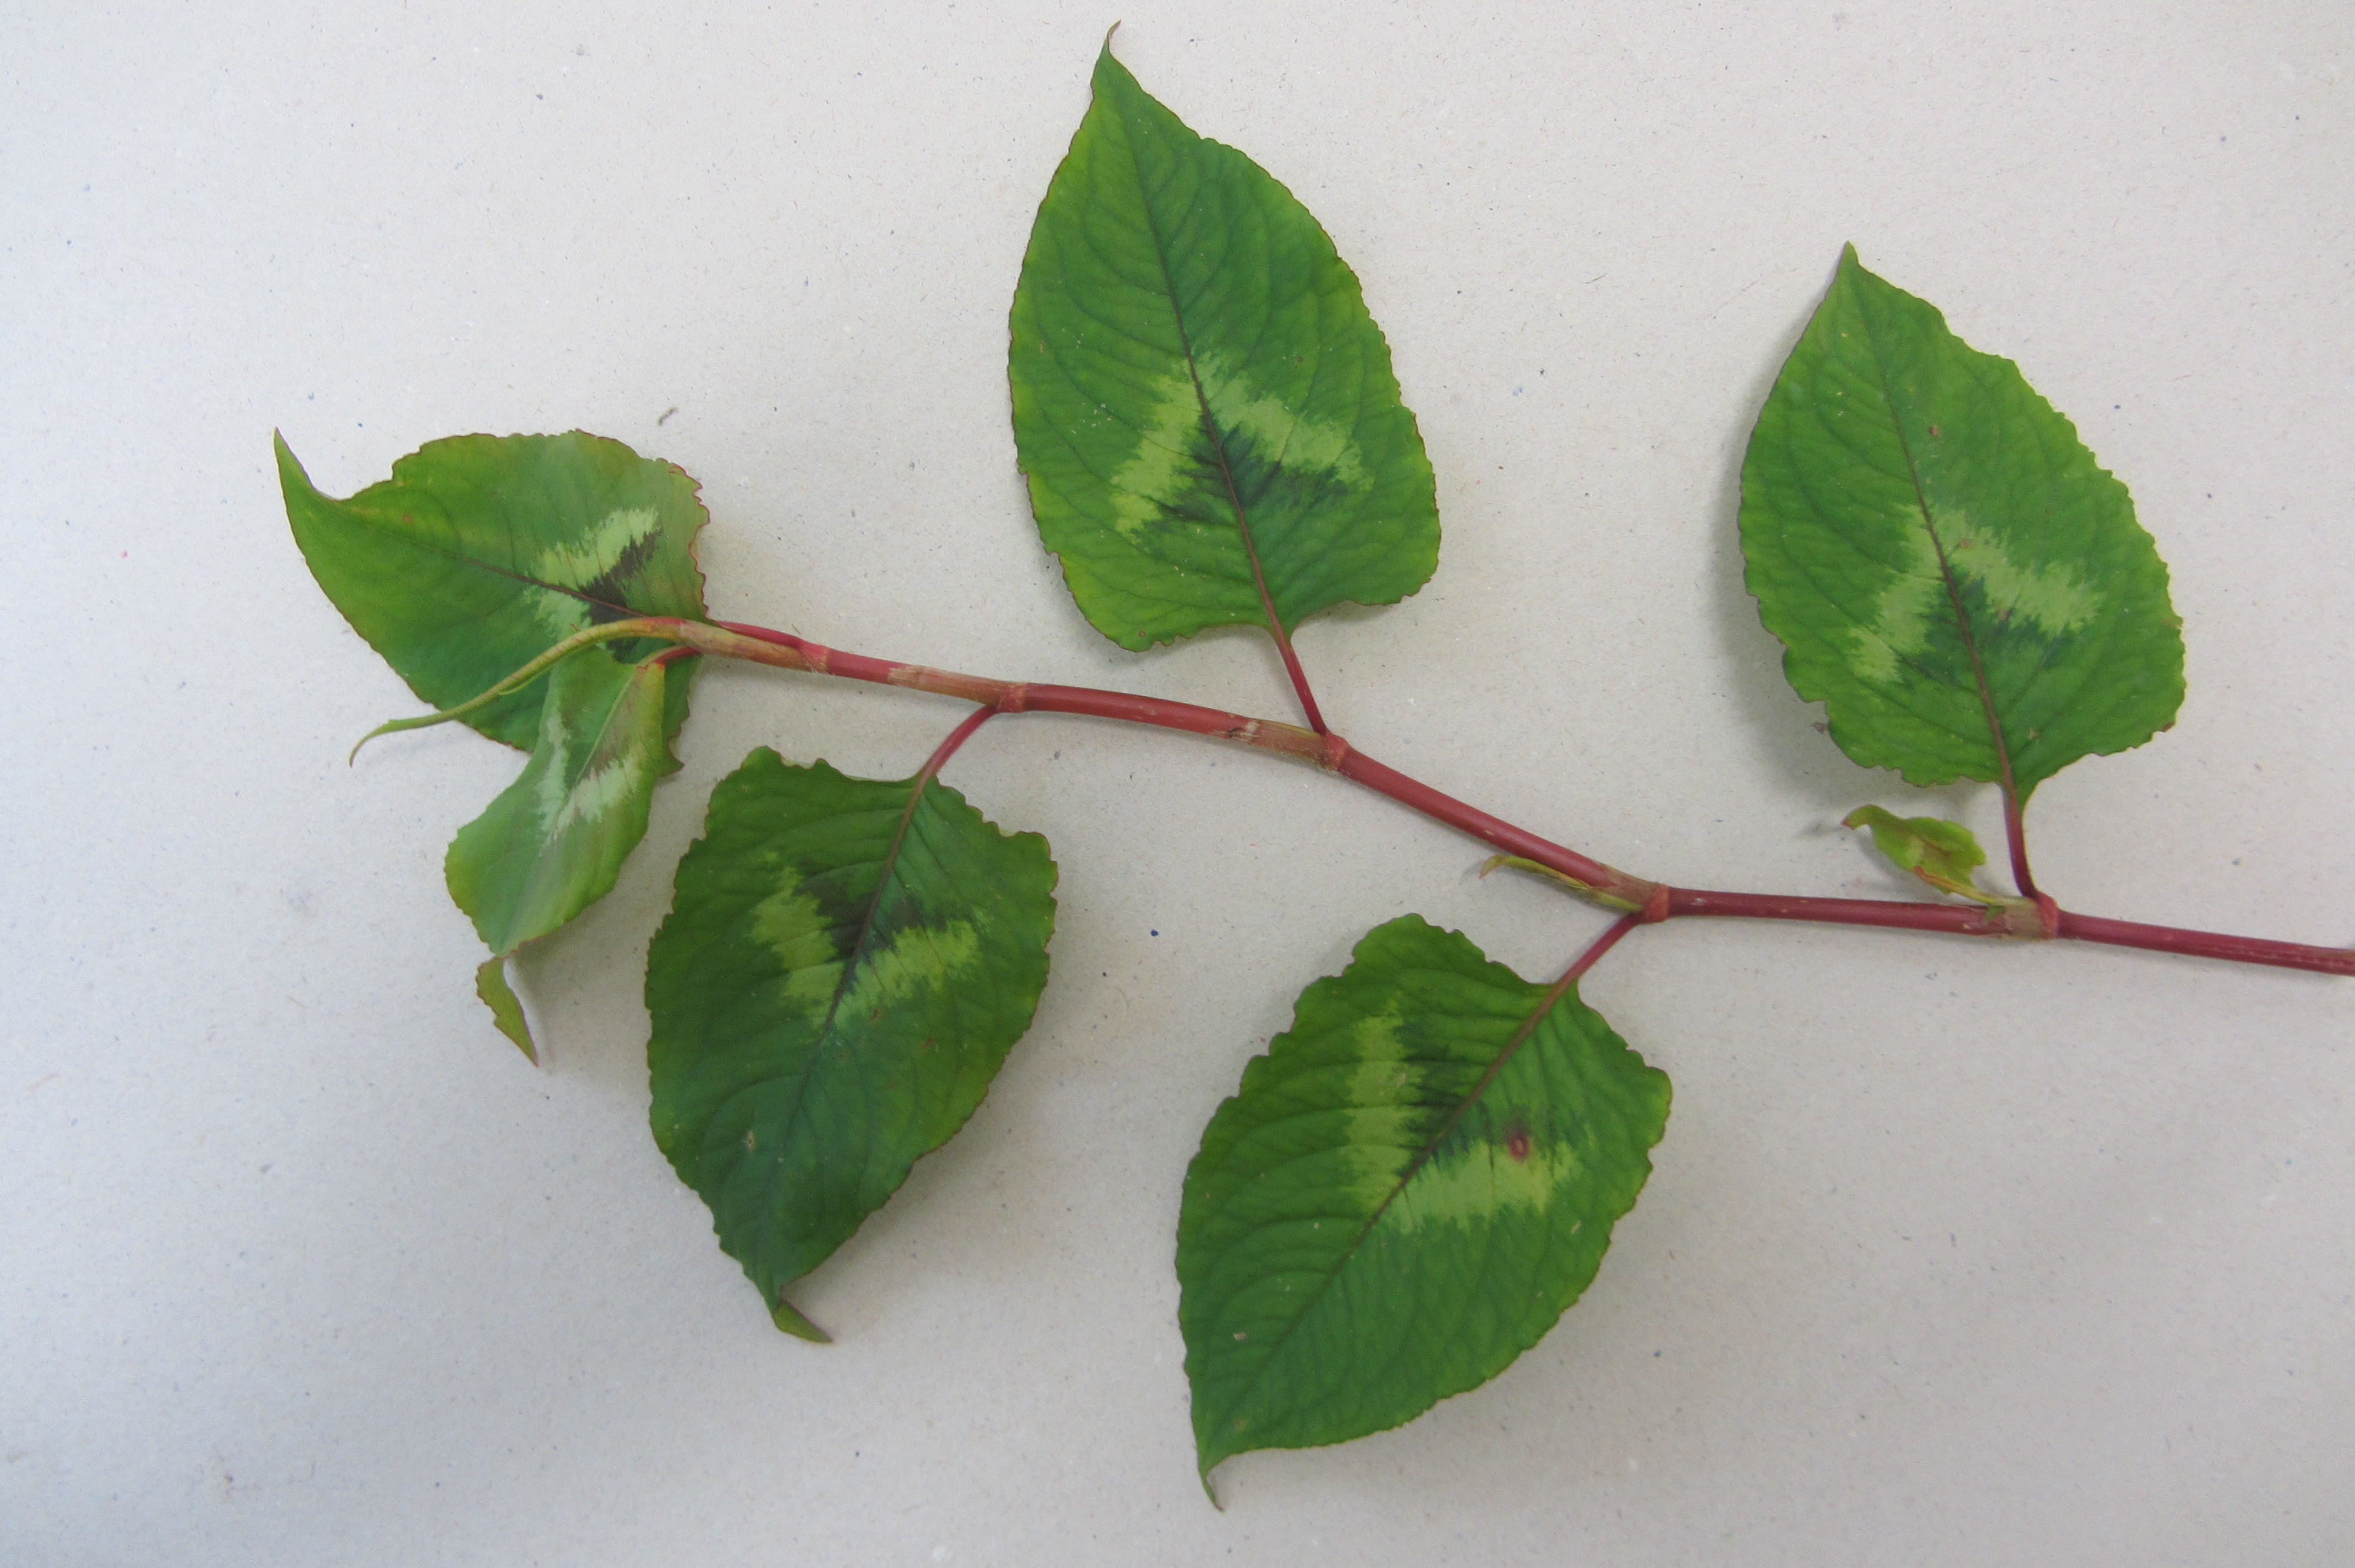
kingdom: Plantae
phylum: Tracheophyta
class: Magnoliopsida
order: Caryophyllales
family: Polygonaceae
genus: Persicaria
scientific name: Persicaria chinensis
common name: Chinese knotweed
